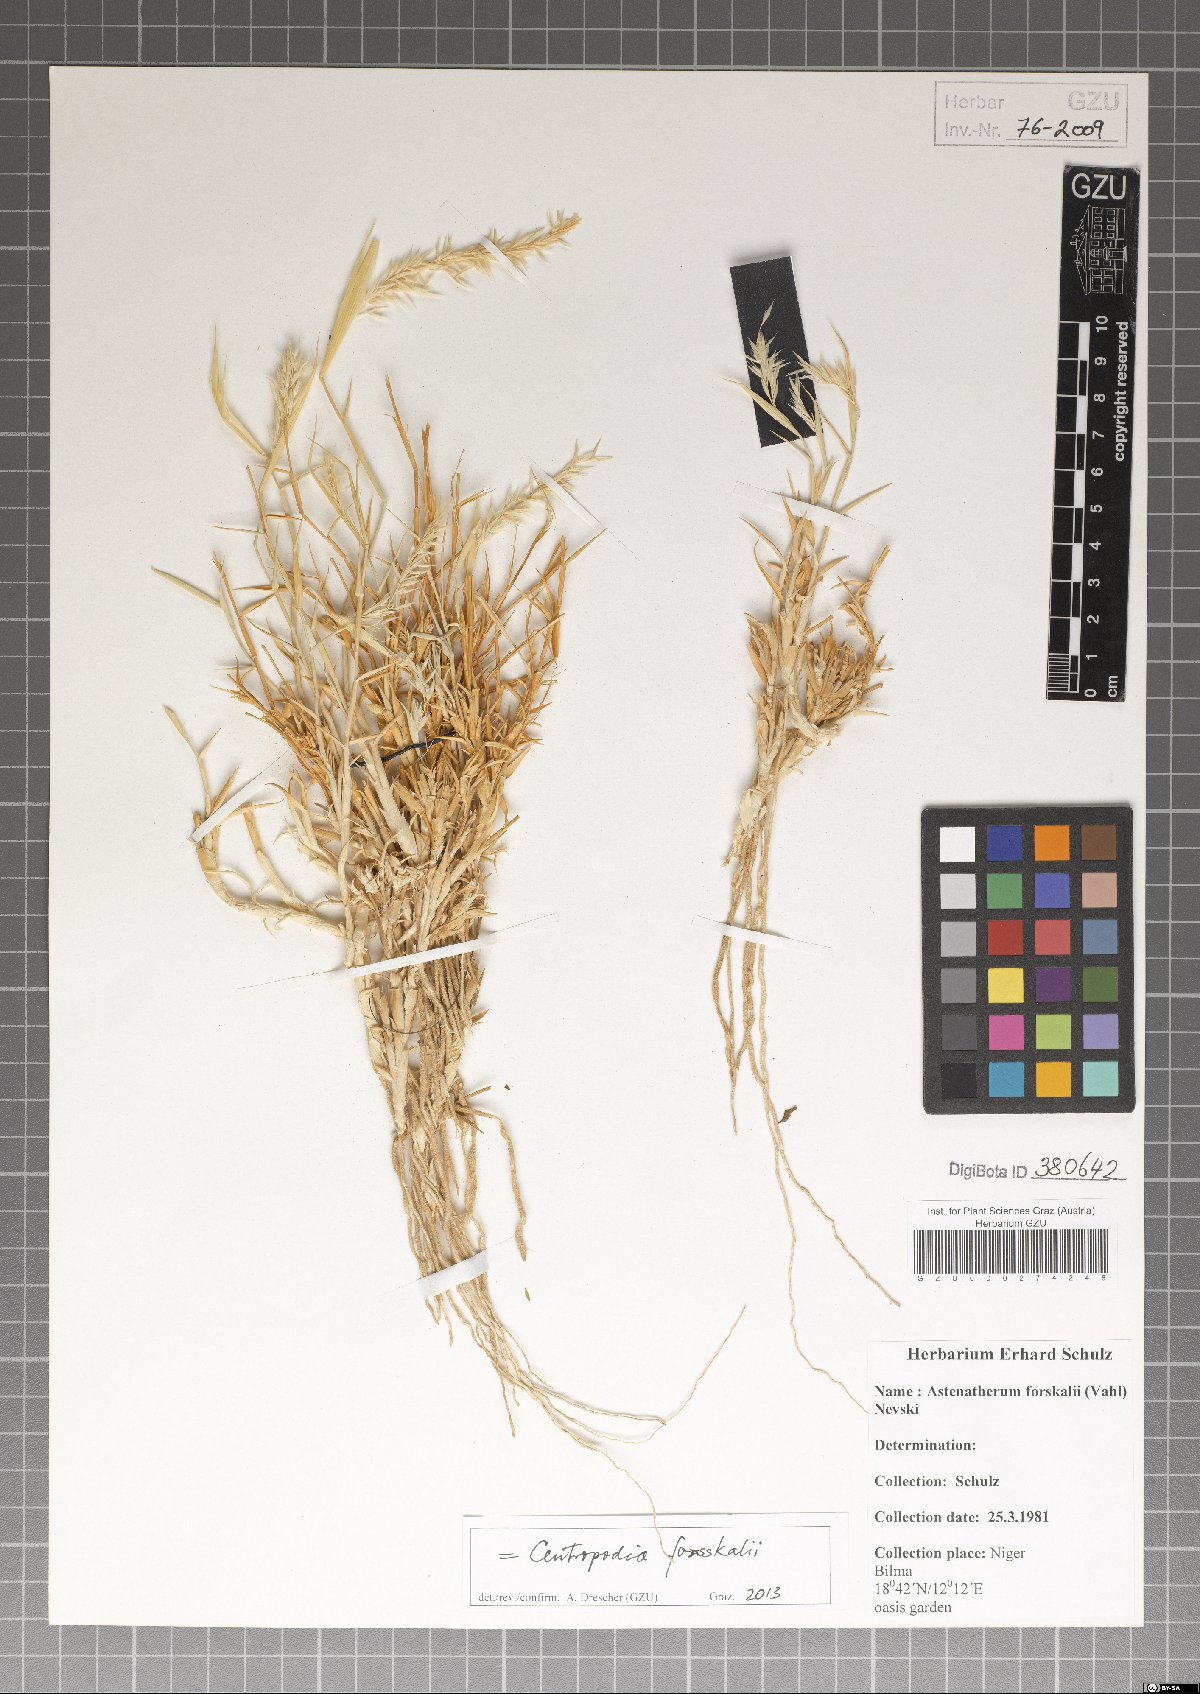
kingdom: Plantae
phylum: Tracheophyta
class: Liliopsida
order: Poales
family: Poaceae
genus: Centropodia
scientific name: Centropodia forsskalii
